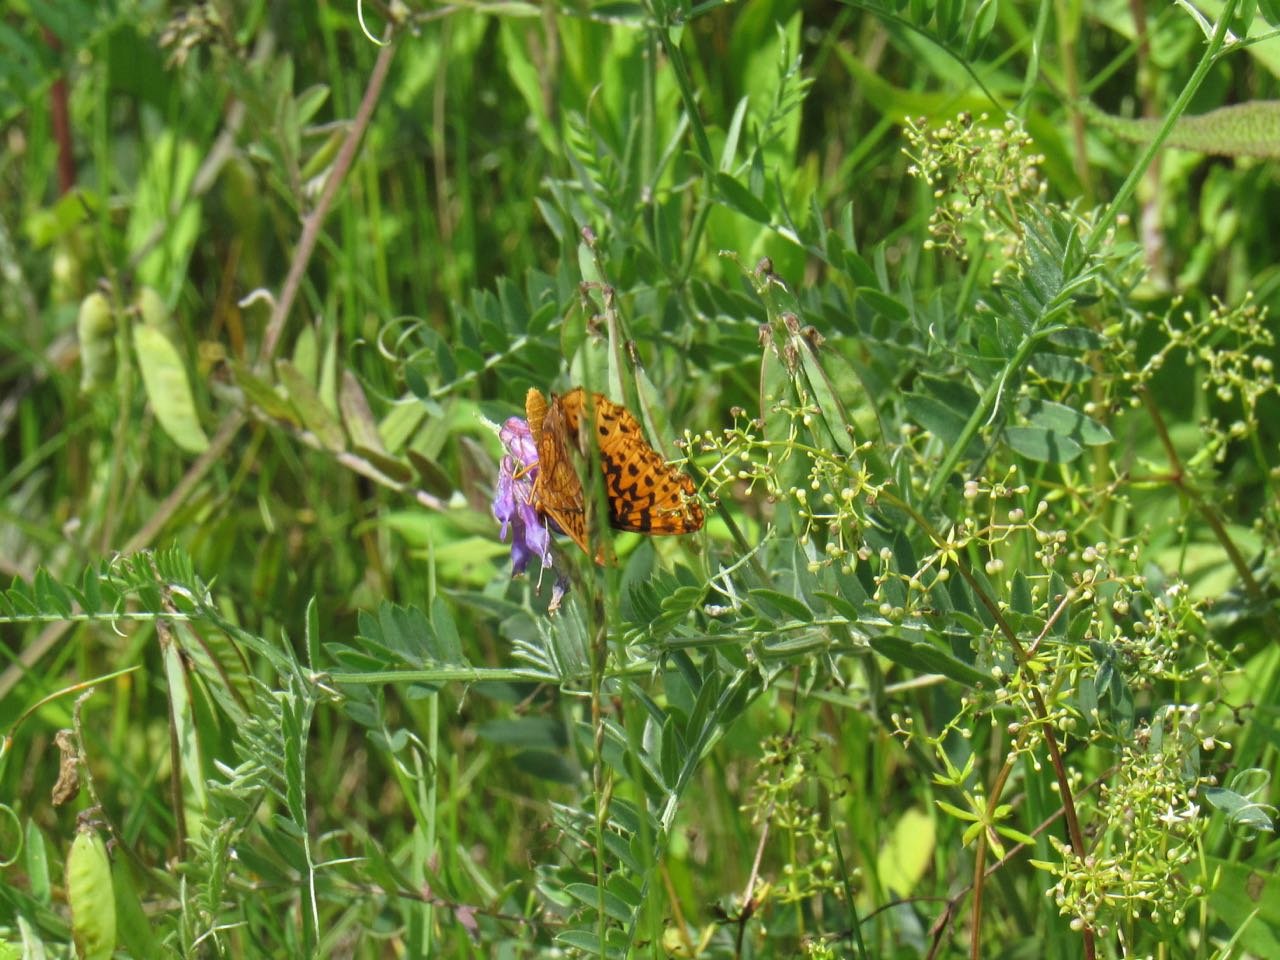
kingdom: Animalia
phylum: Arthropoda
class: Insecta
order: Lepidoptera
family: Nymphalidae
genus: Clossiana
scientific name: Clossiana toddi
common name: Meadow Fritillary
